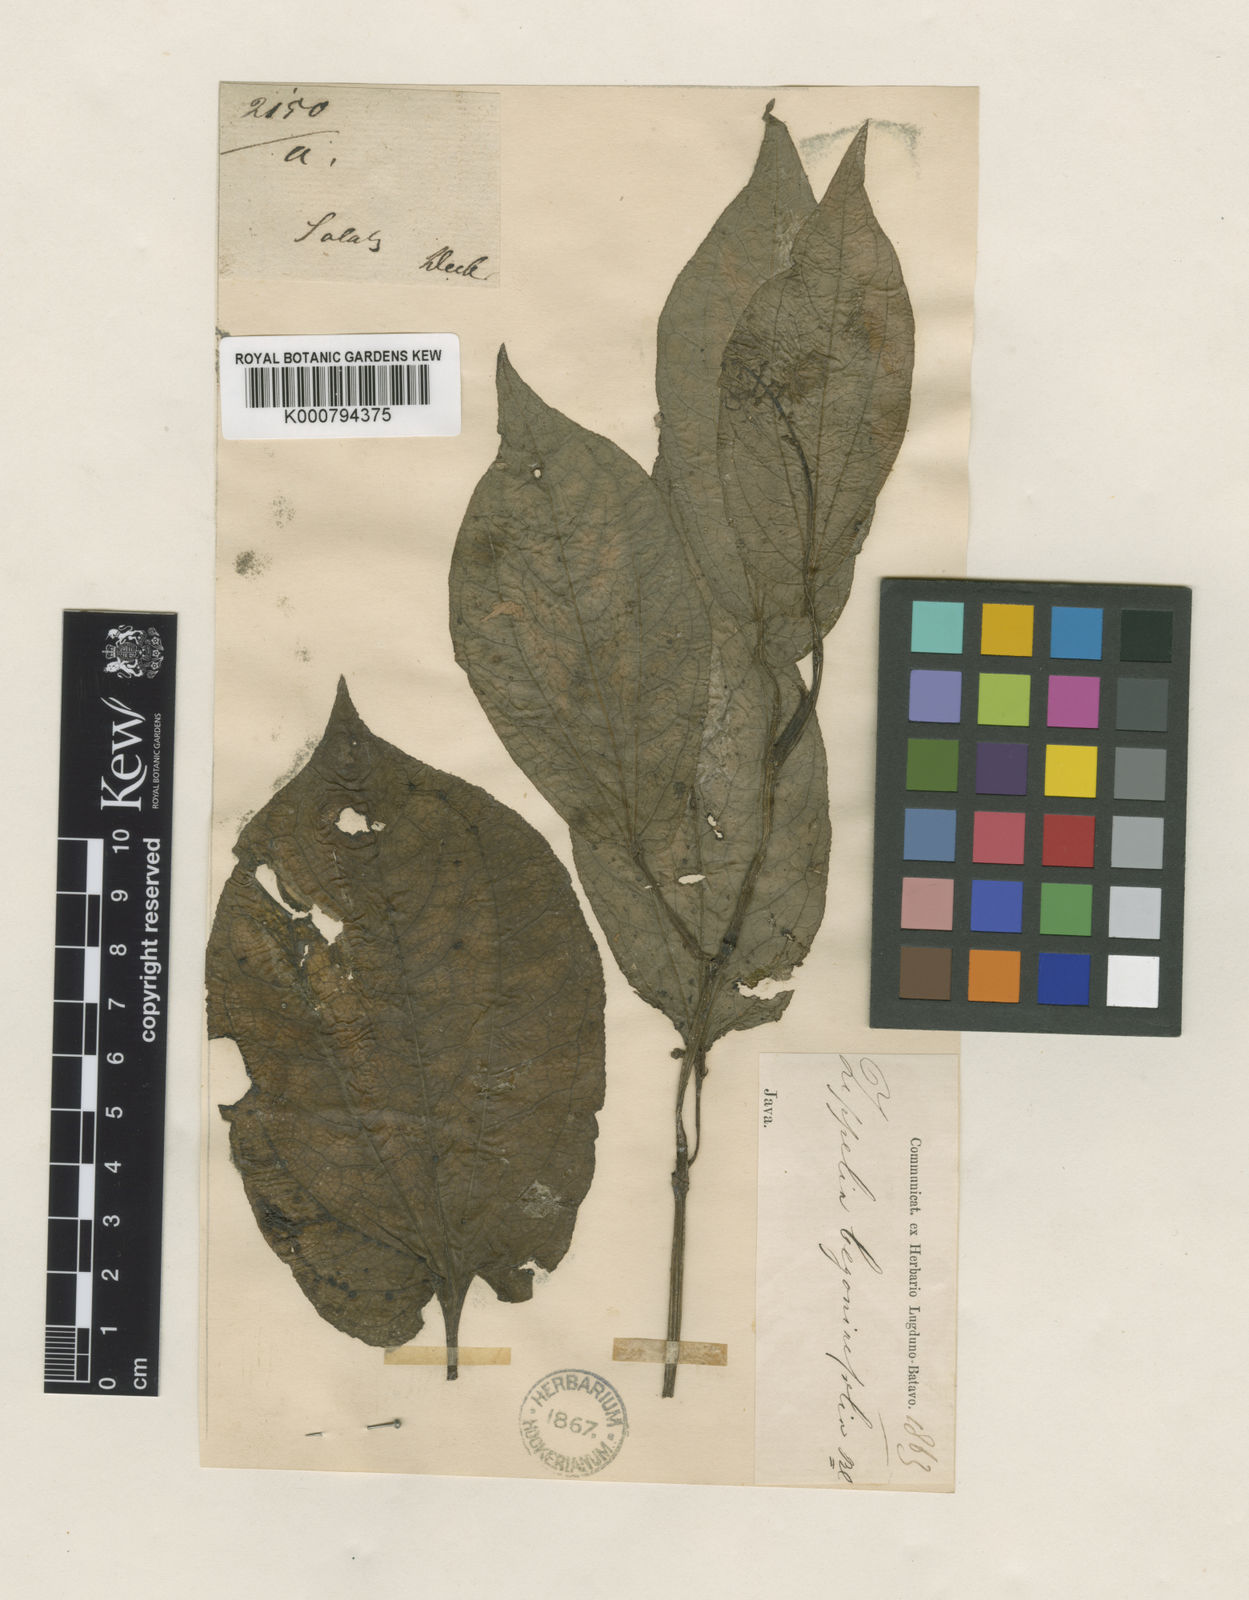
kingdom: Plantae
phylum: Tracheophyta
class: Magnoliopsida
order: Piperales
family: Piperaceae
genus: Zippelia
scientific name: Zippelia begoniifolia
